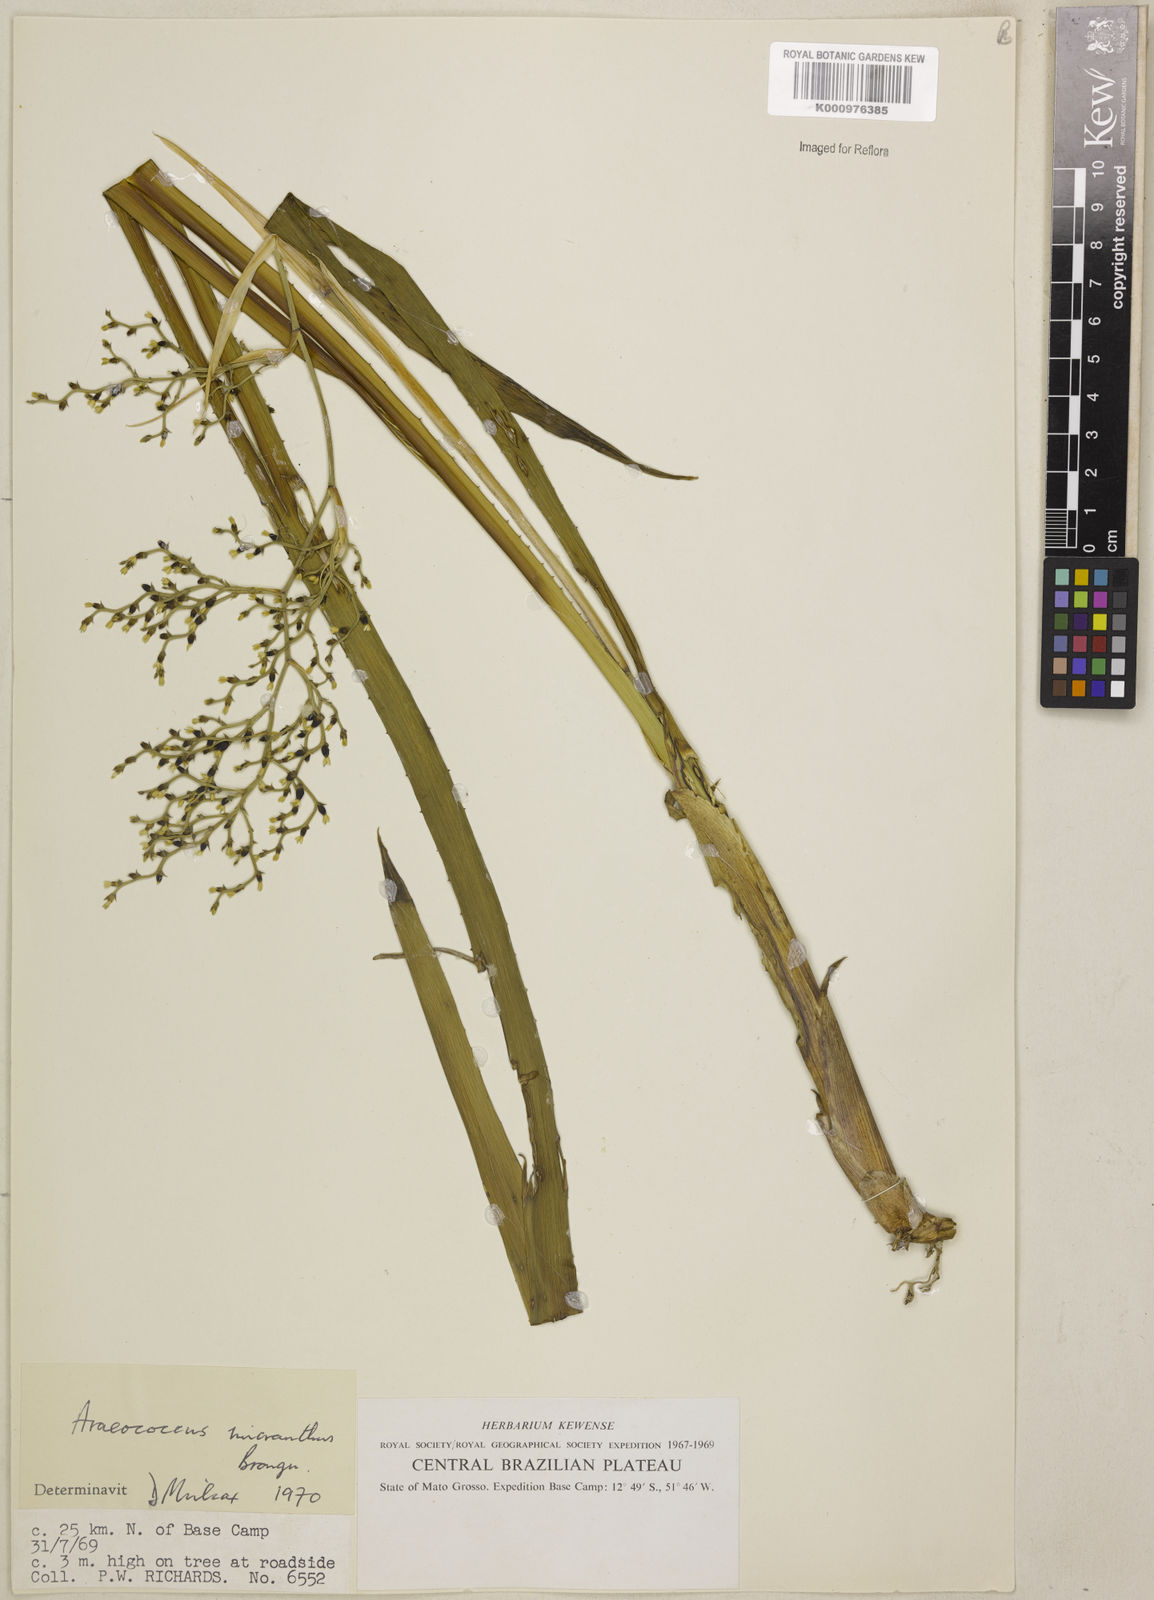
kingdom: Plantae
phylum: Tracheophyta
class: Liliopsida
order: Poales
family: Bromeliaceae
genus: Araeococcus
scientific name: Araeococcus micranthus
